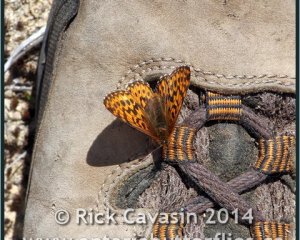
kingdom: Animalia
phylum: Arthropoda
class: Insecta
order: Lepidoptera
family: Nymphalidae
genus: Boloria
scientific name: Boloria freija
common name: Freija Fritillary
